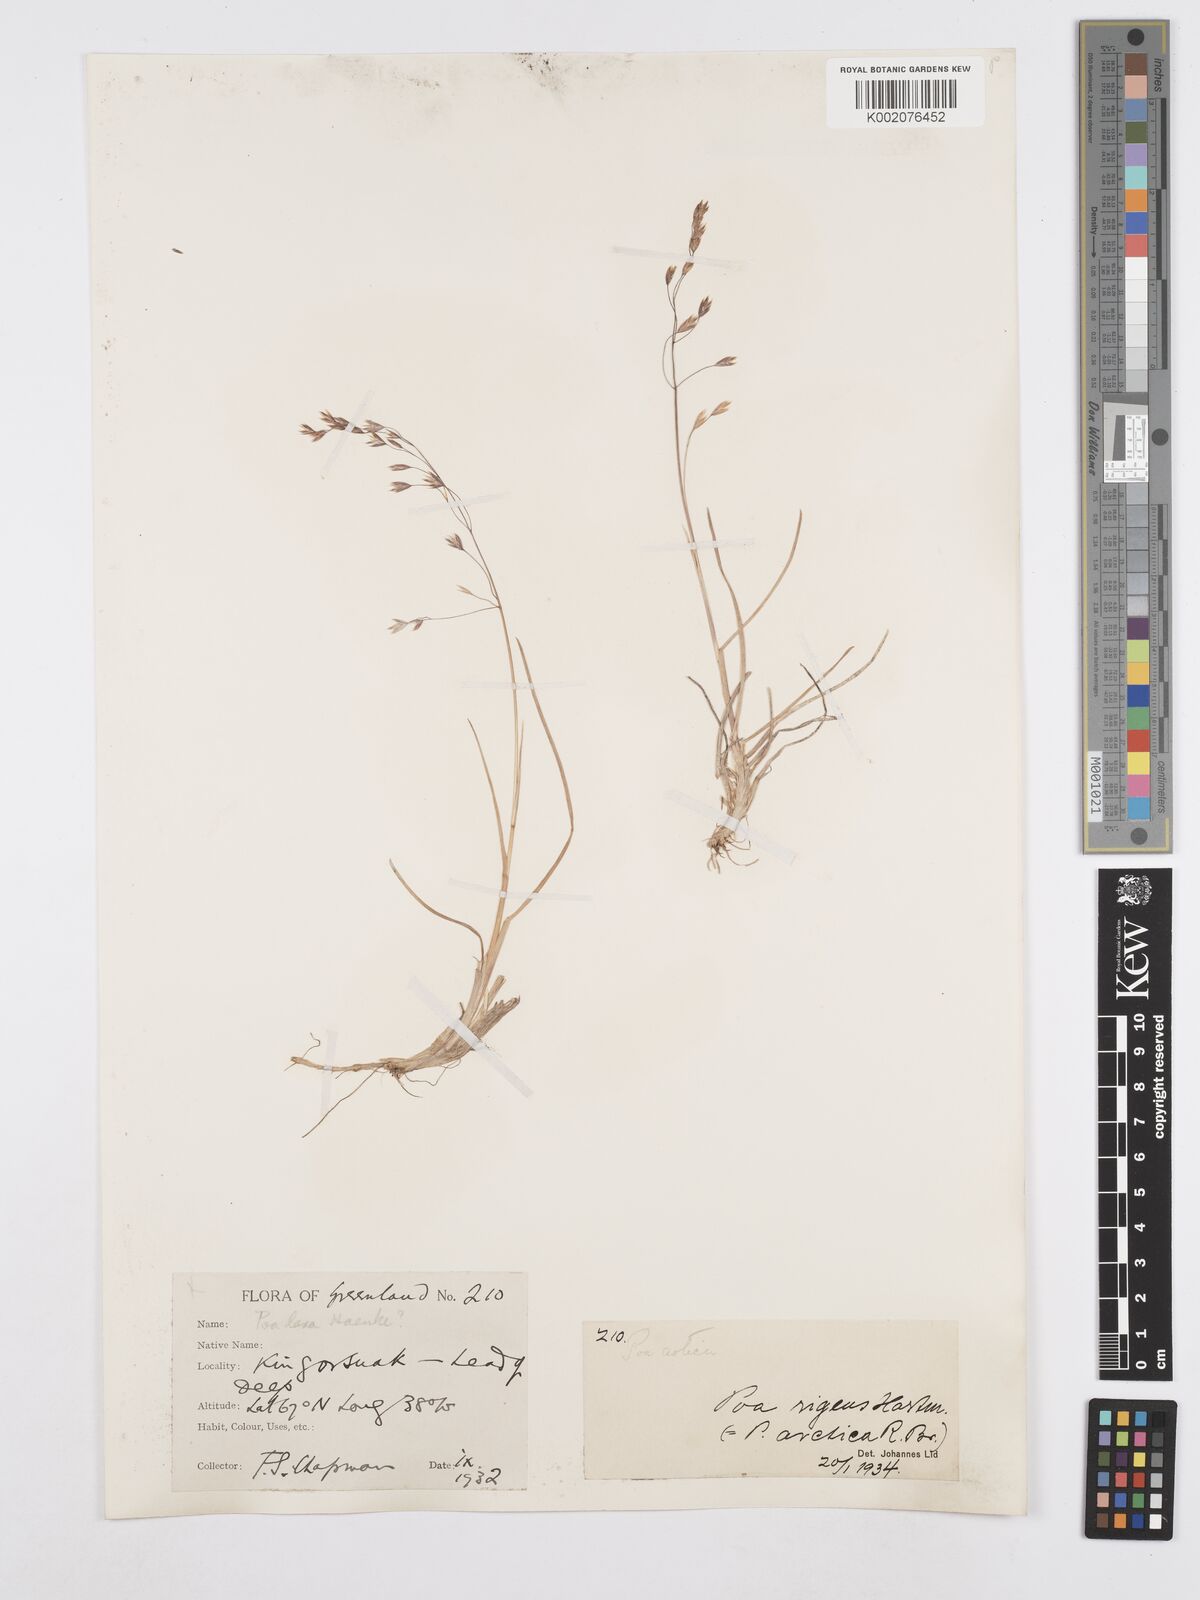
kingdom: Plantae
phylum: Tracheophyta
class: Liliopsida
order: Poales
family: Poaceae
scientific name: Poaceae
